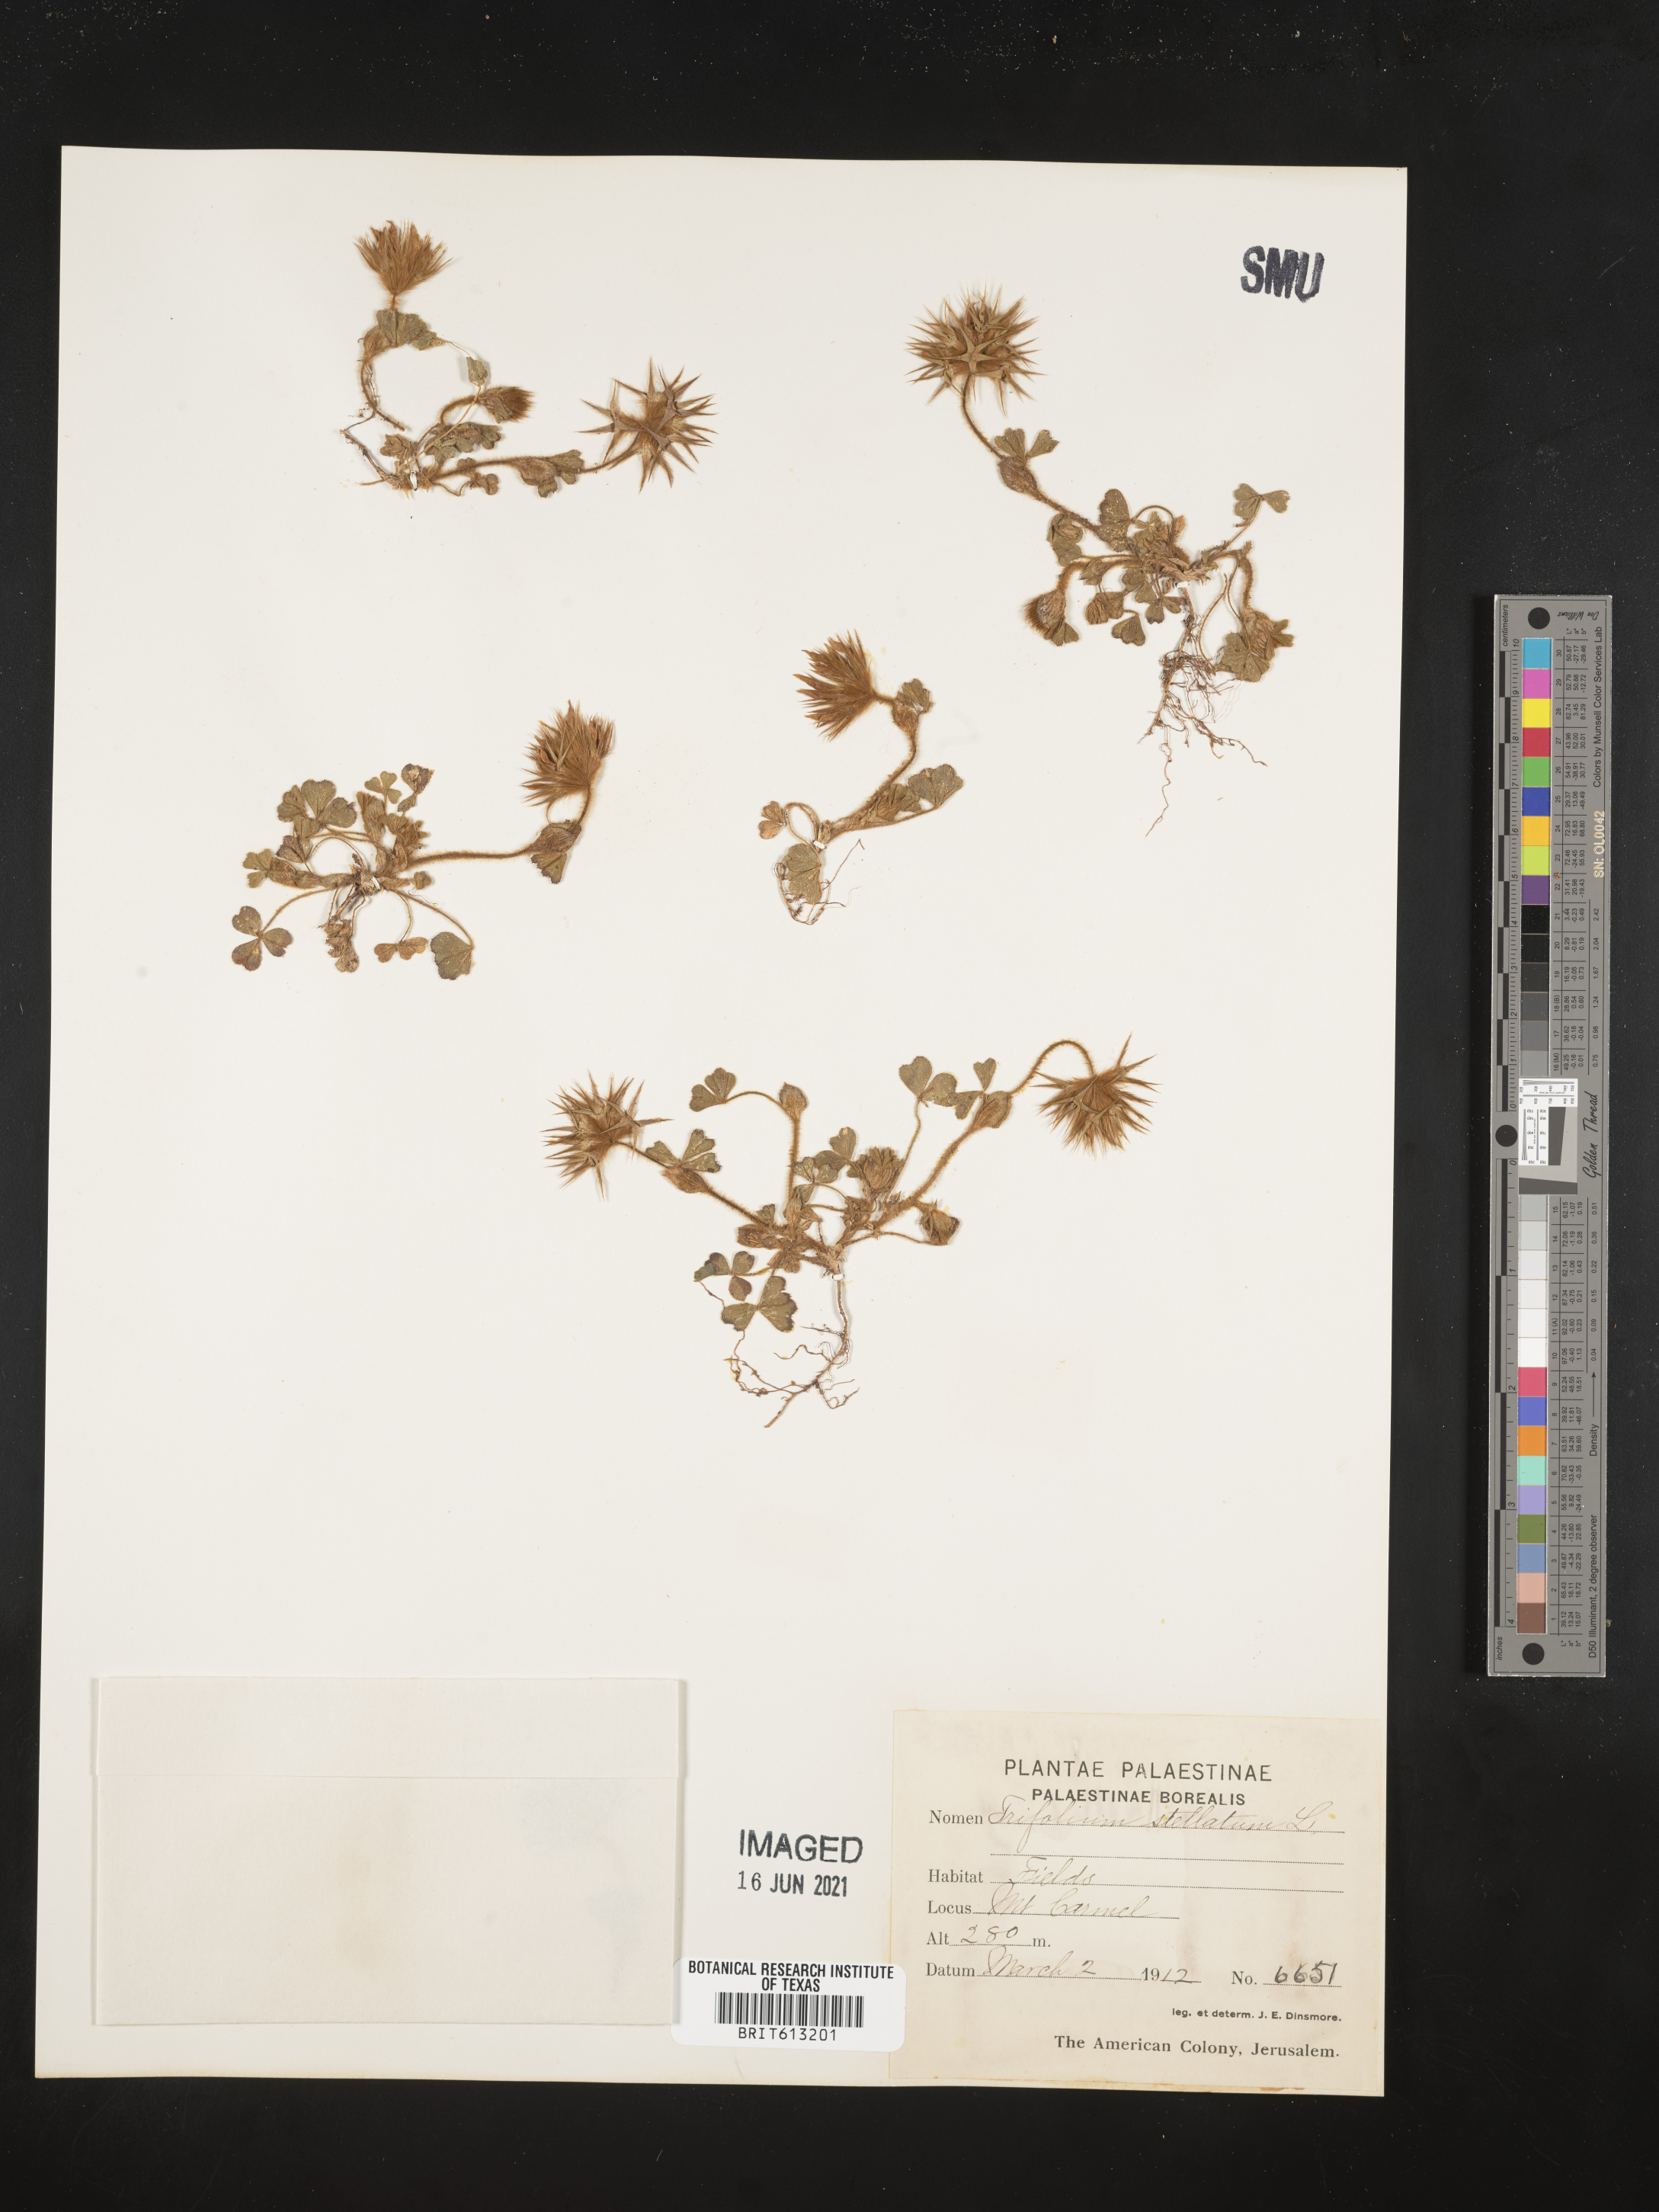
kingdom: Plantae
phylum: Tracheophyta
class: Magnoliopsida
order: Fabales
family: Fabaceae
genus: Trifolium
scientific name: Trifolium stellatum
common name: Starry clover
